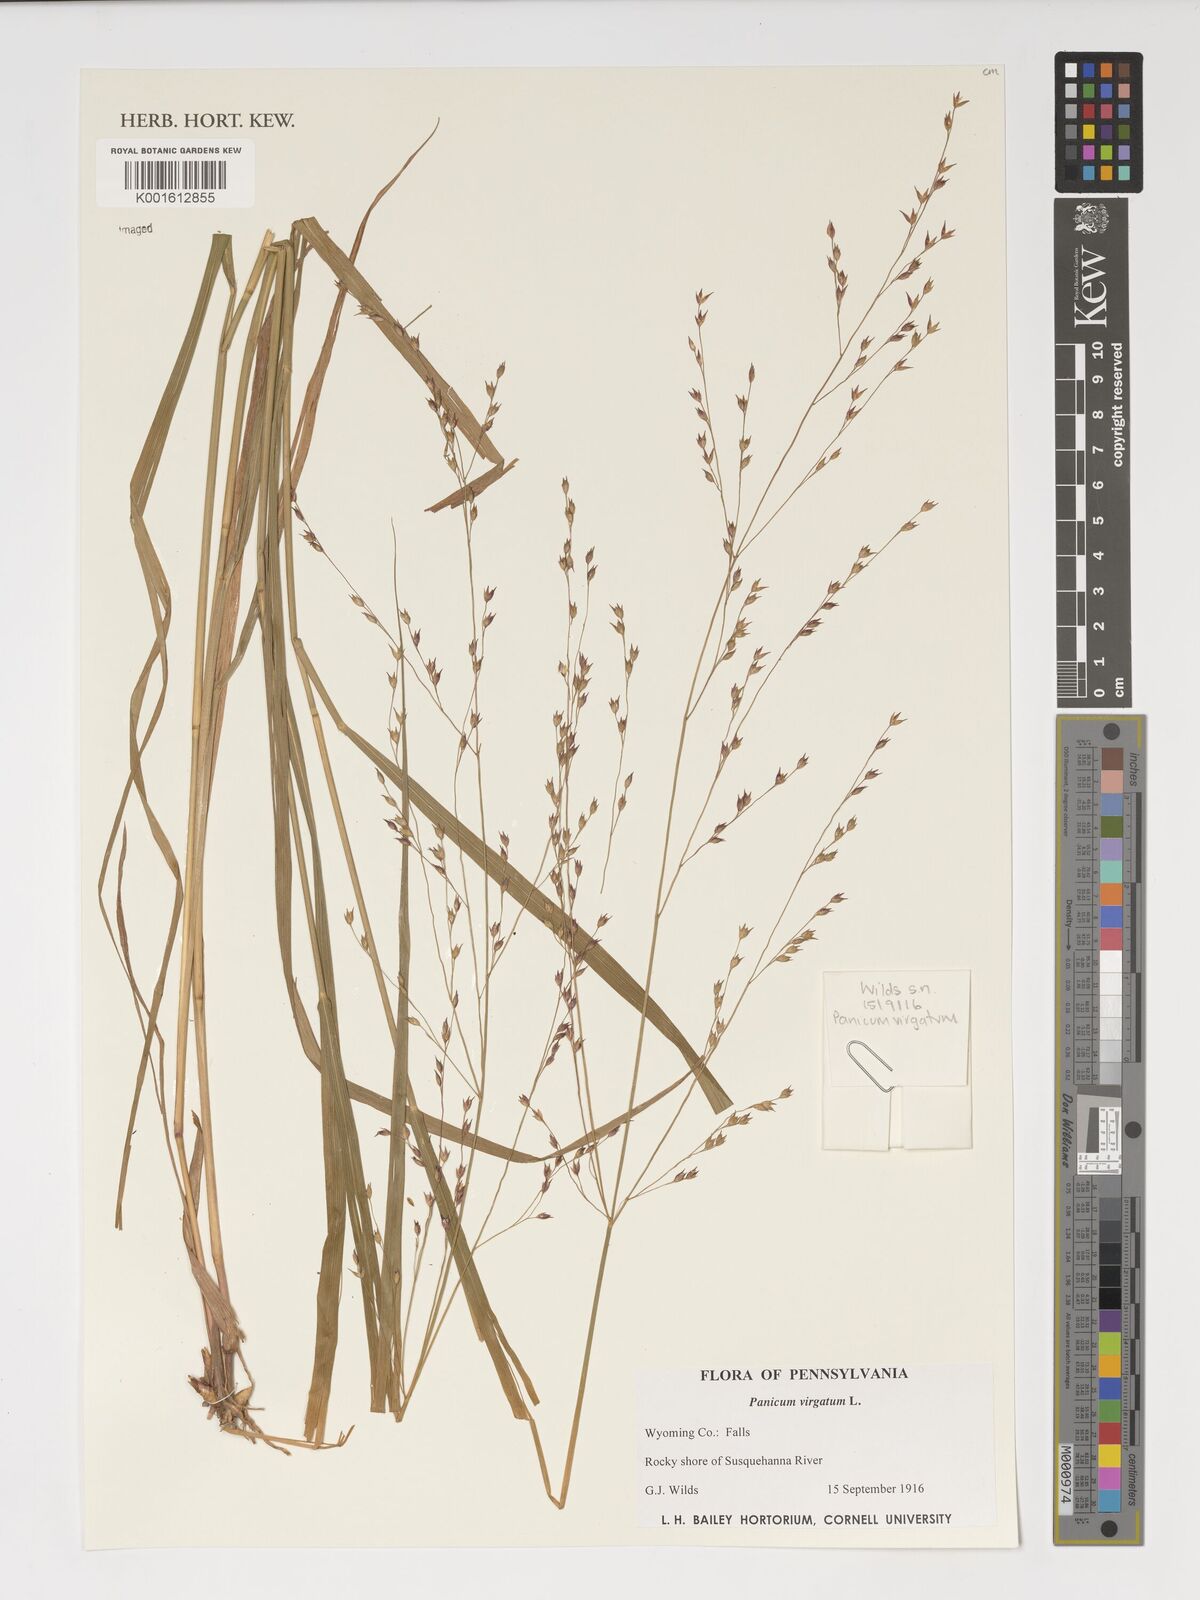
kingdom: Plantae
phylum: Tracheophyta
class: Liliopsida
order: Poales
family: Poaceae
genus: Panicum
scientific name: Panicum sumatrense
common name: Little millet
